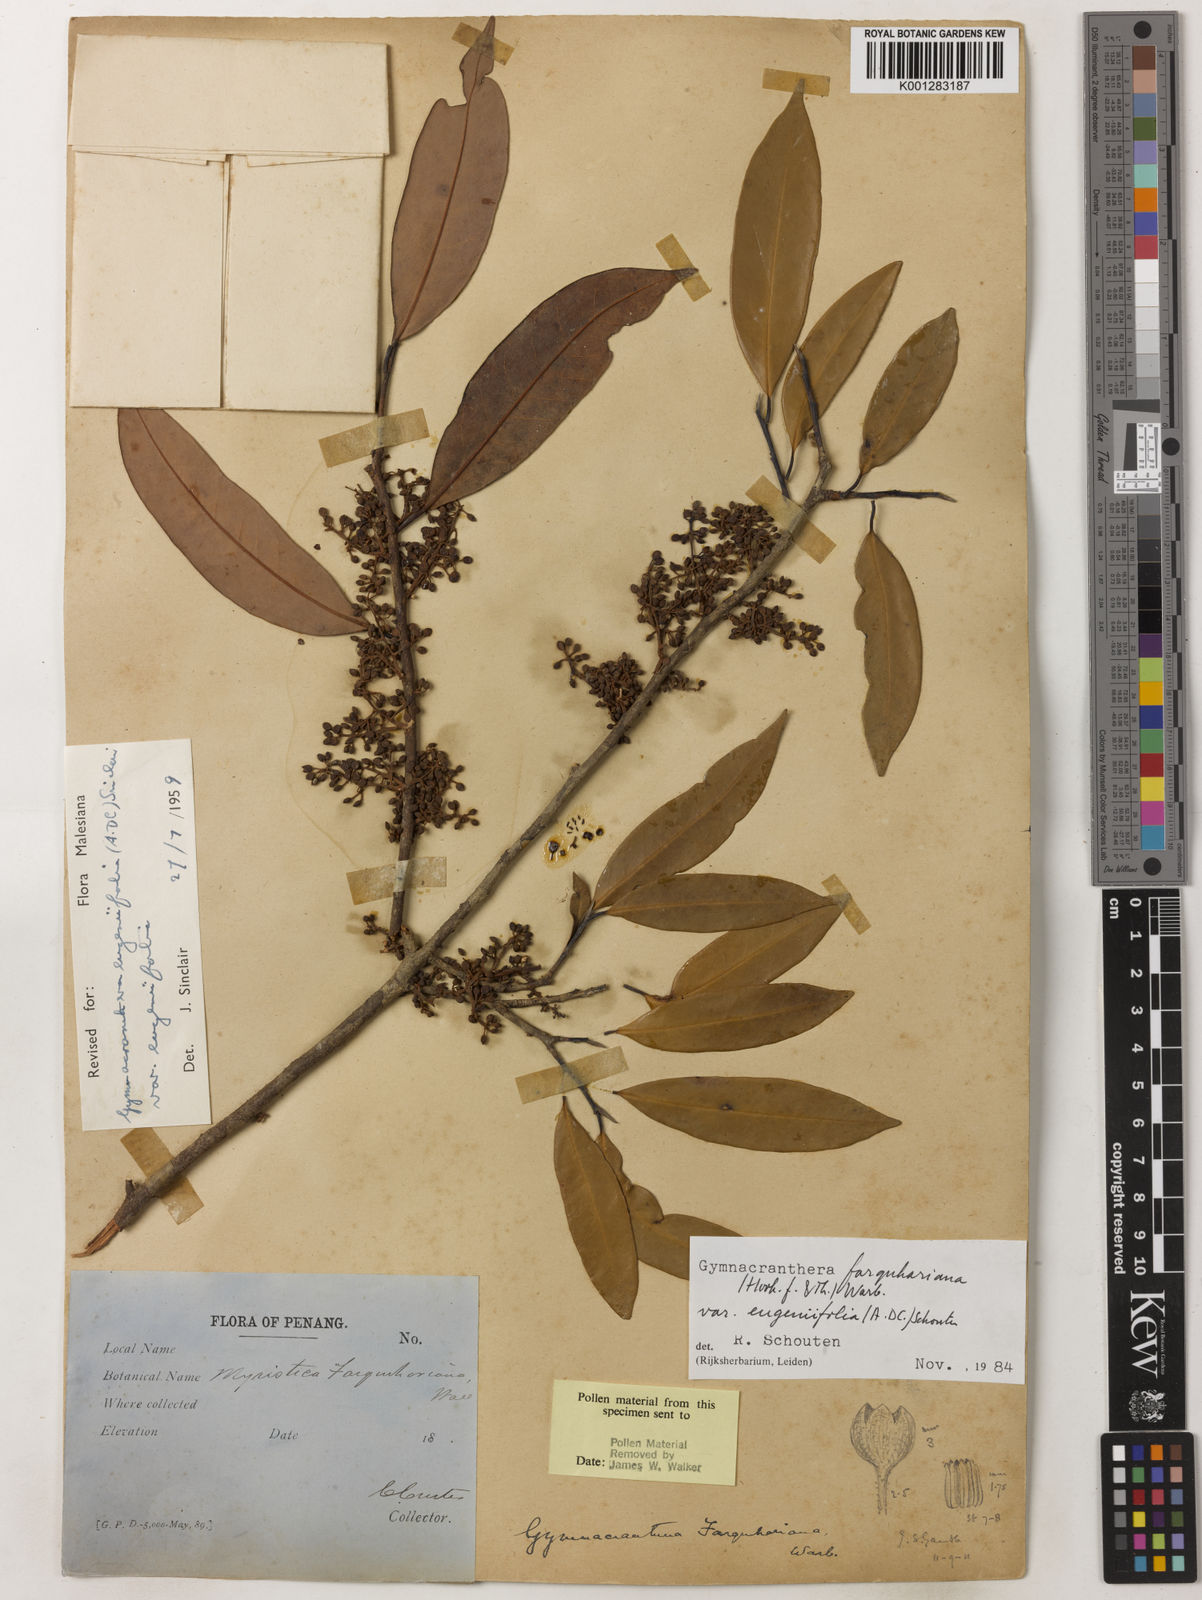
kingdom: Plantae
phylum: Tracheophyta
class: Magnoliopsida
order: Magnoliales
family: Myristicaceae
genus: Gymnacranthera
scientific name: Gymnacranthera farquhariana
